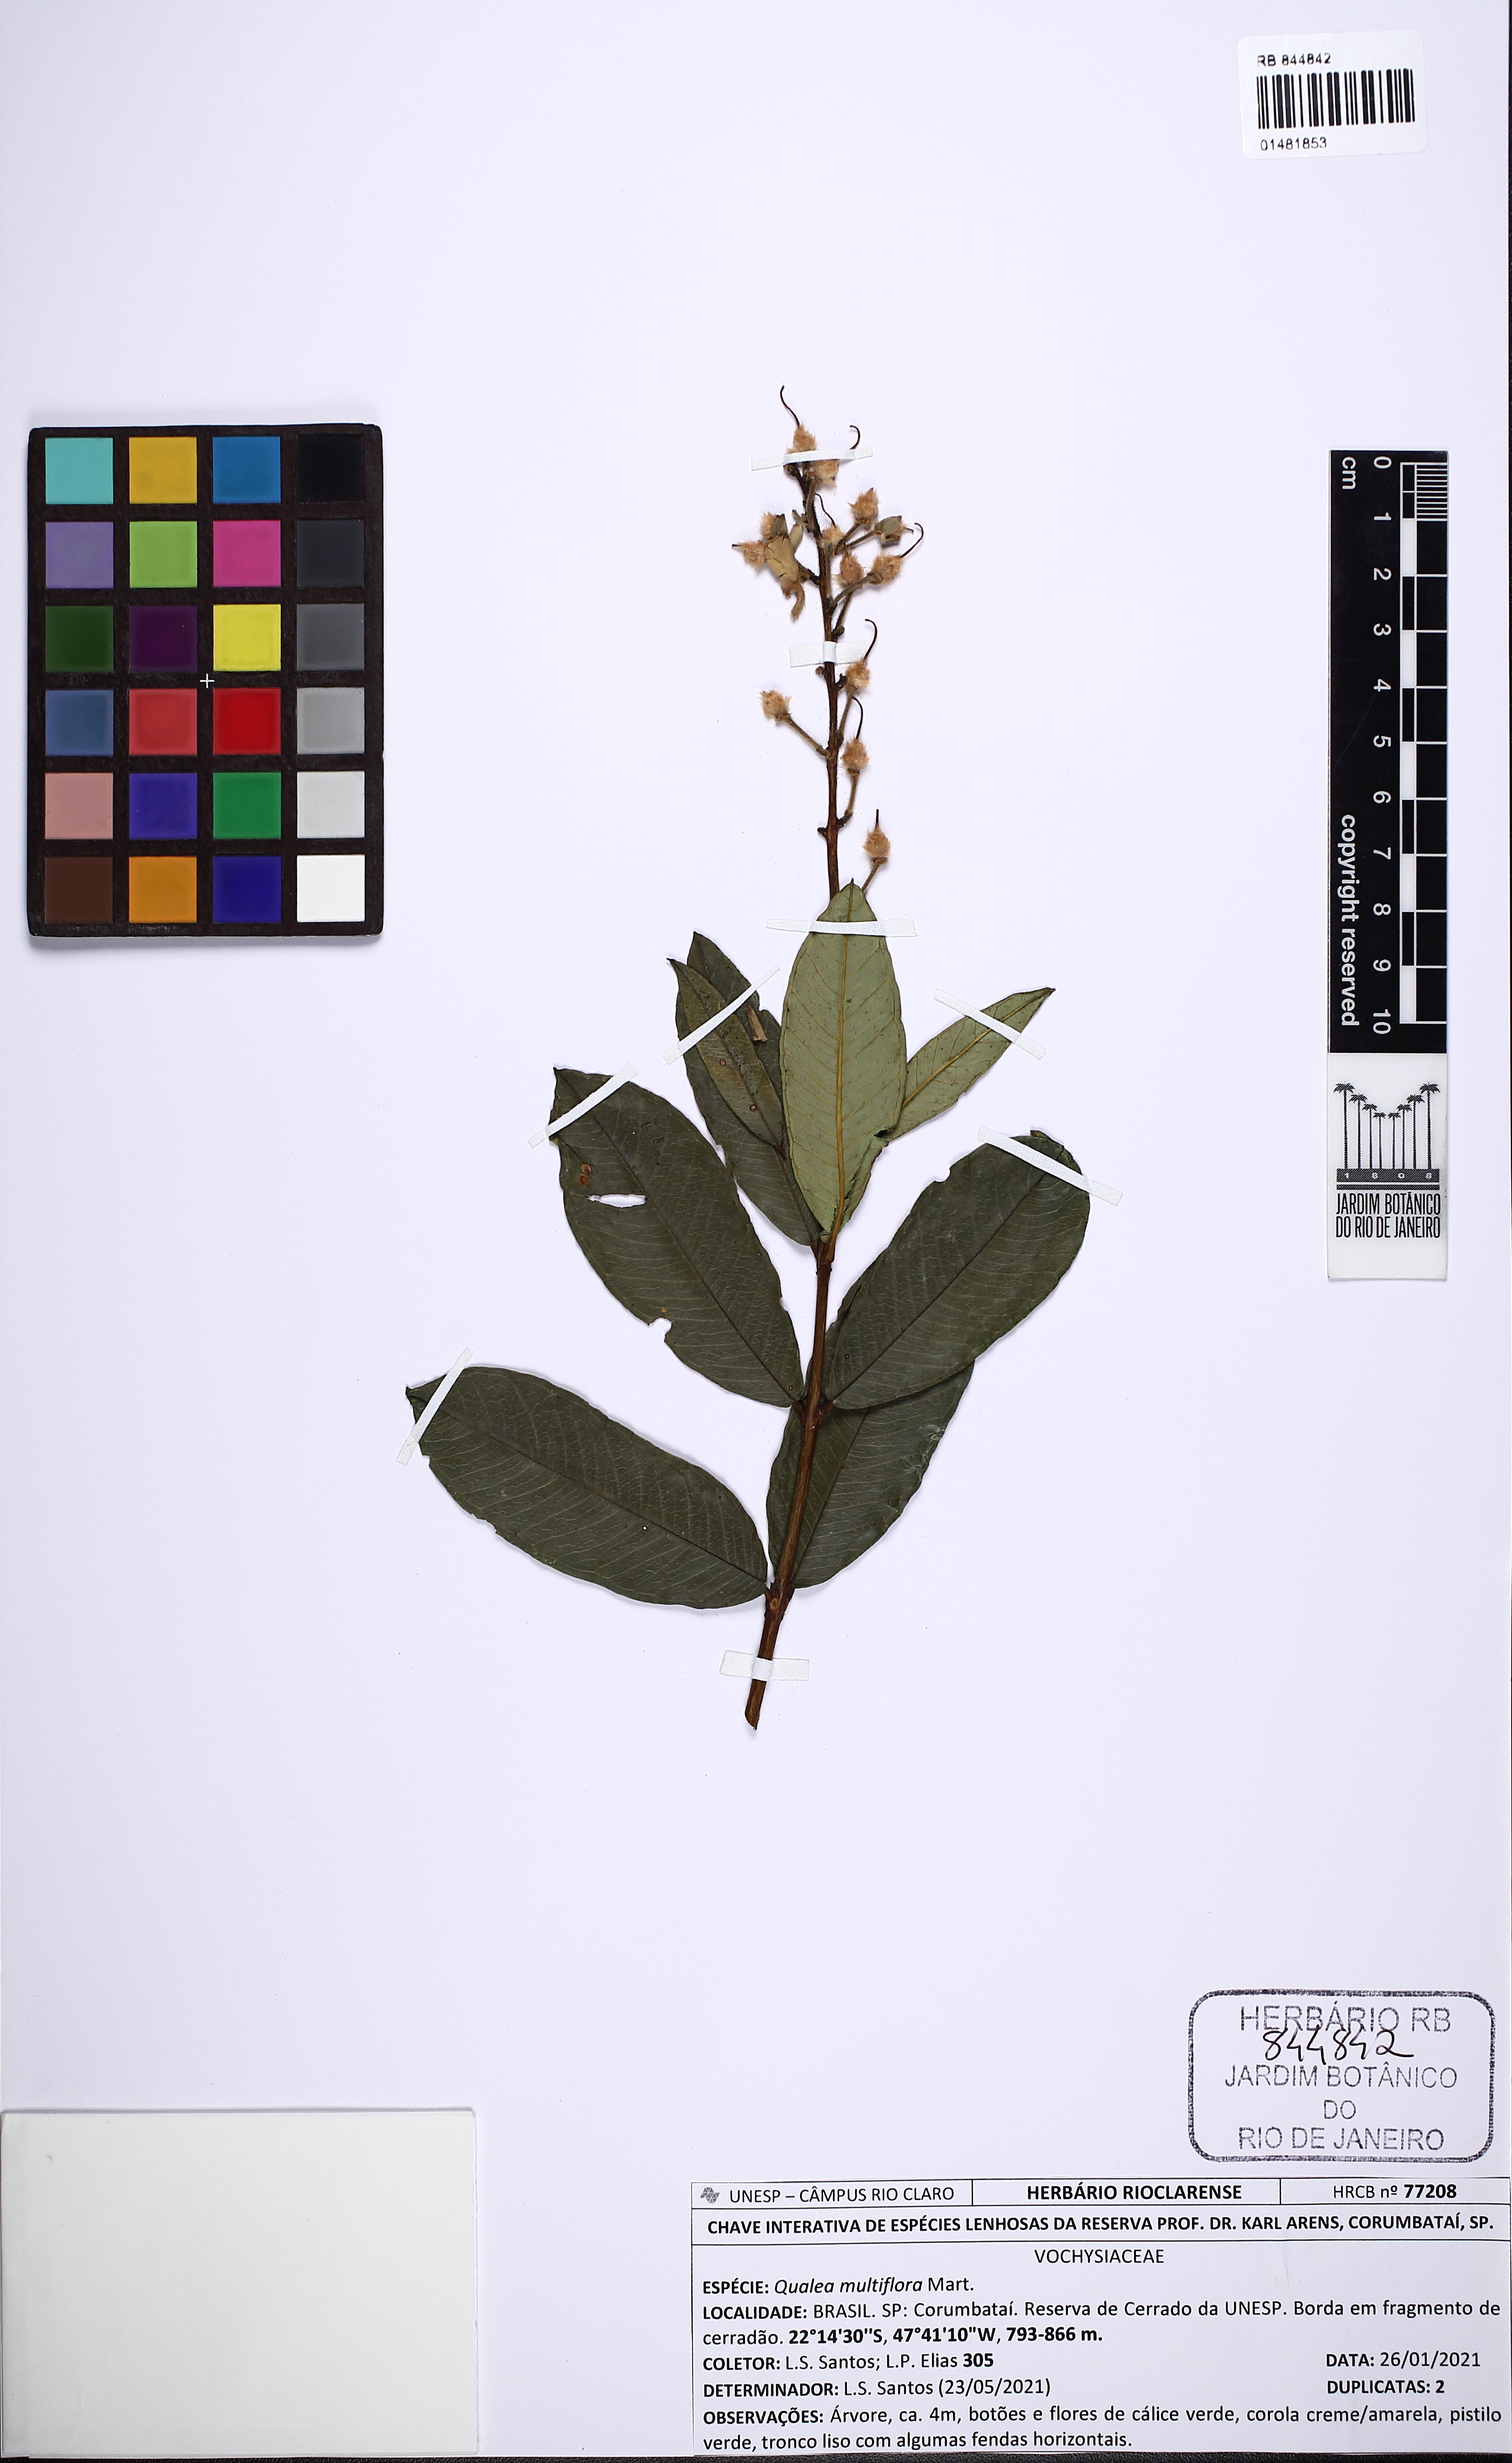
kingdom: Plantae
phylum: Tracheophyta
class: Magnoliopsida
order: Myrtales
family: Vochysiaceae
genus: Qualea
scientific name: Qualea multiflora
